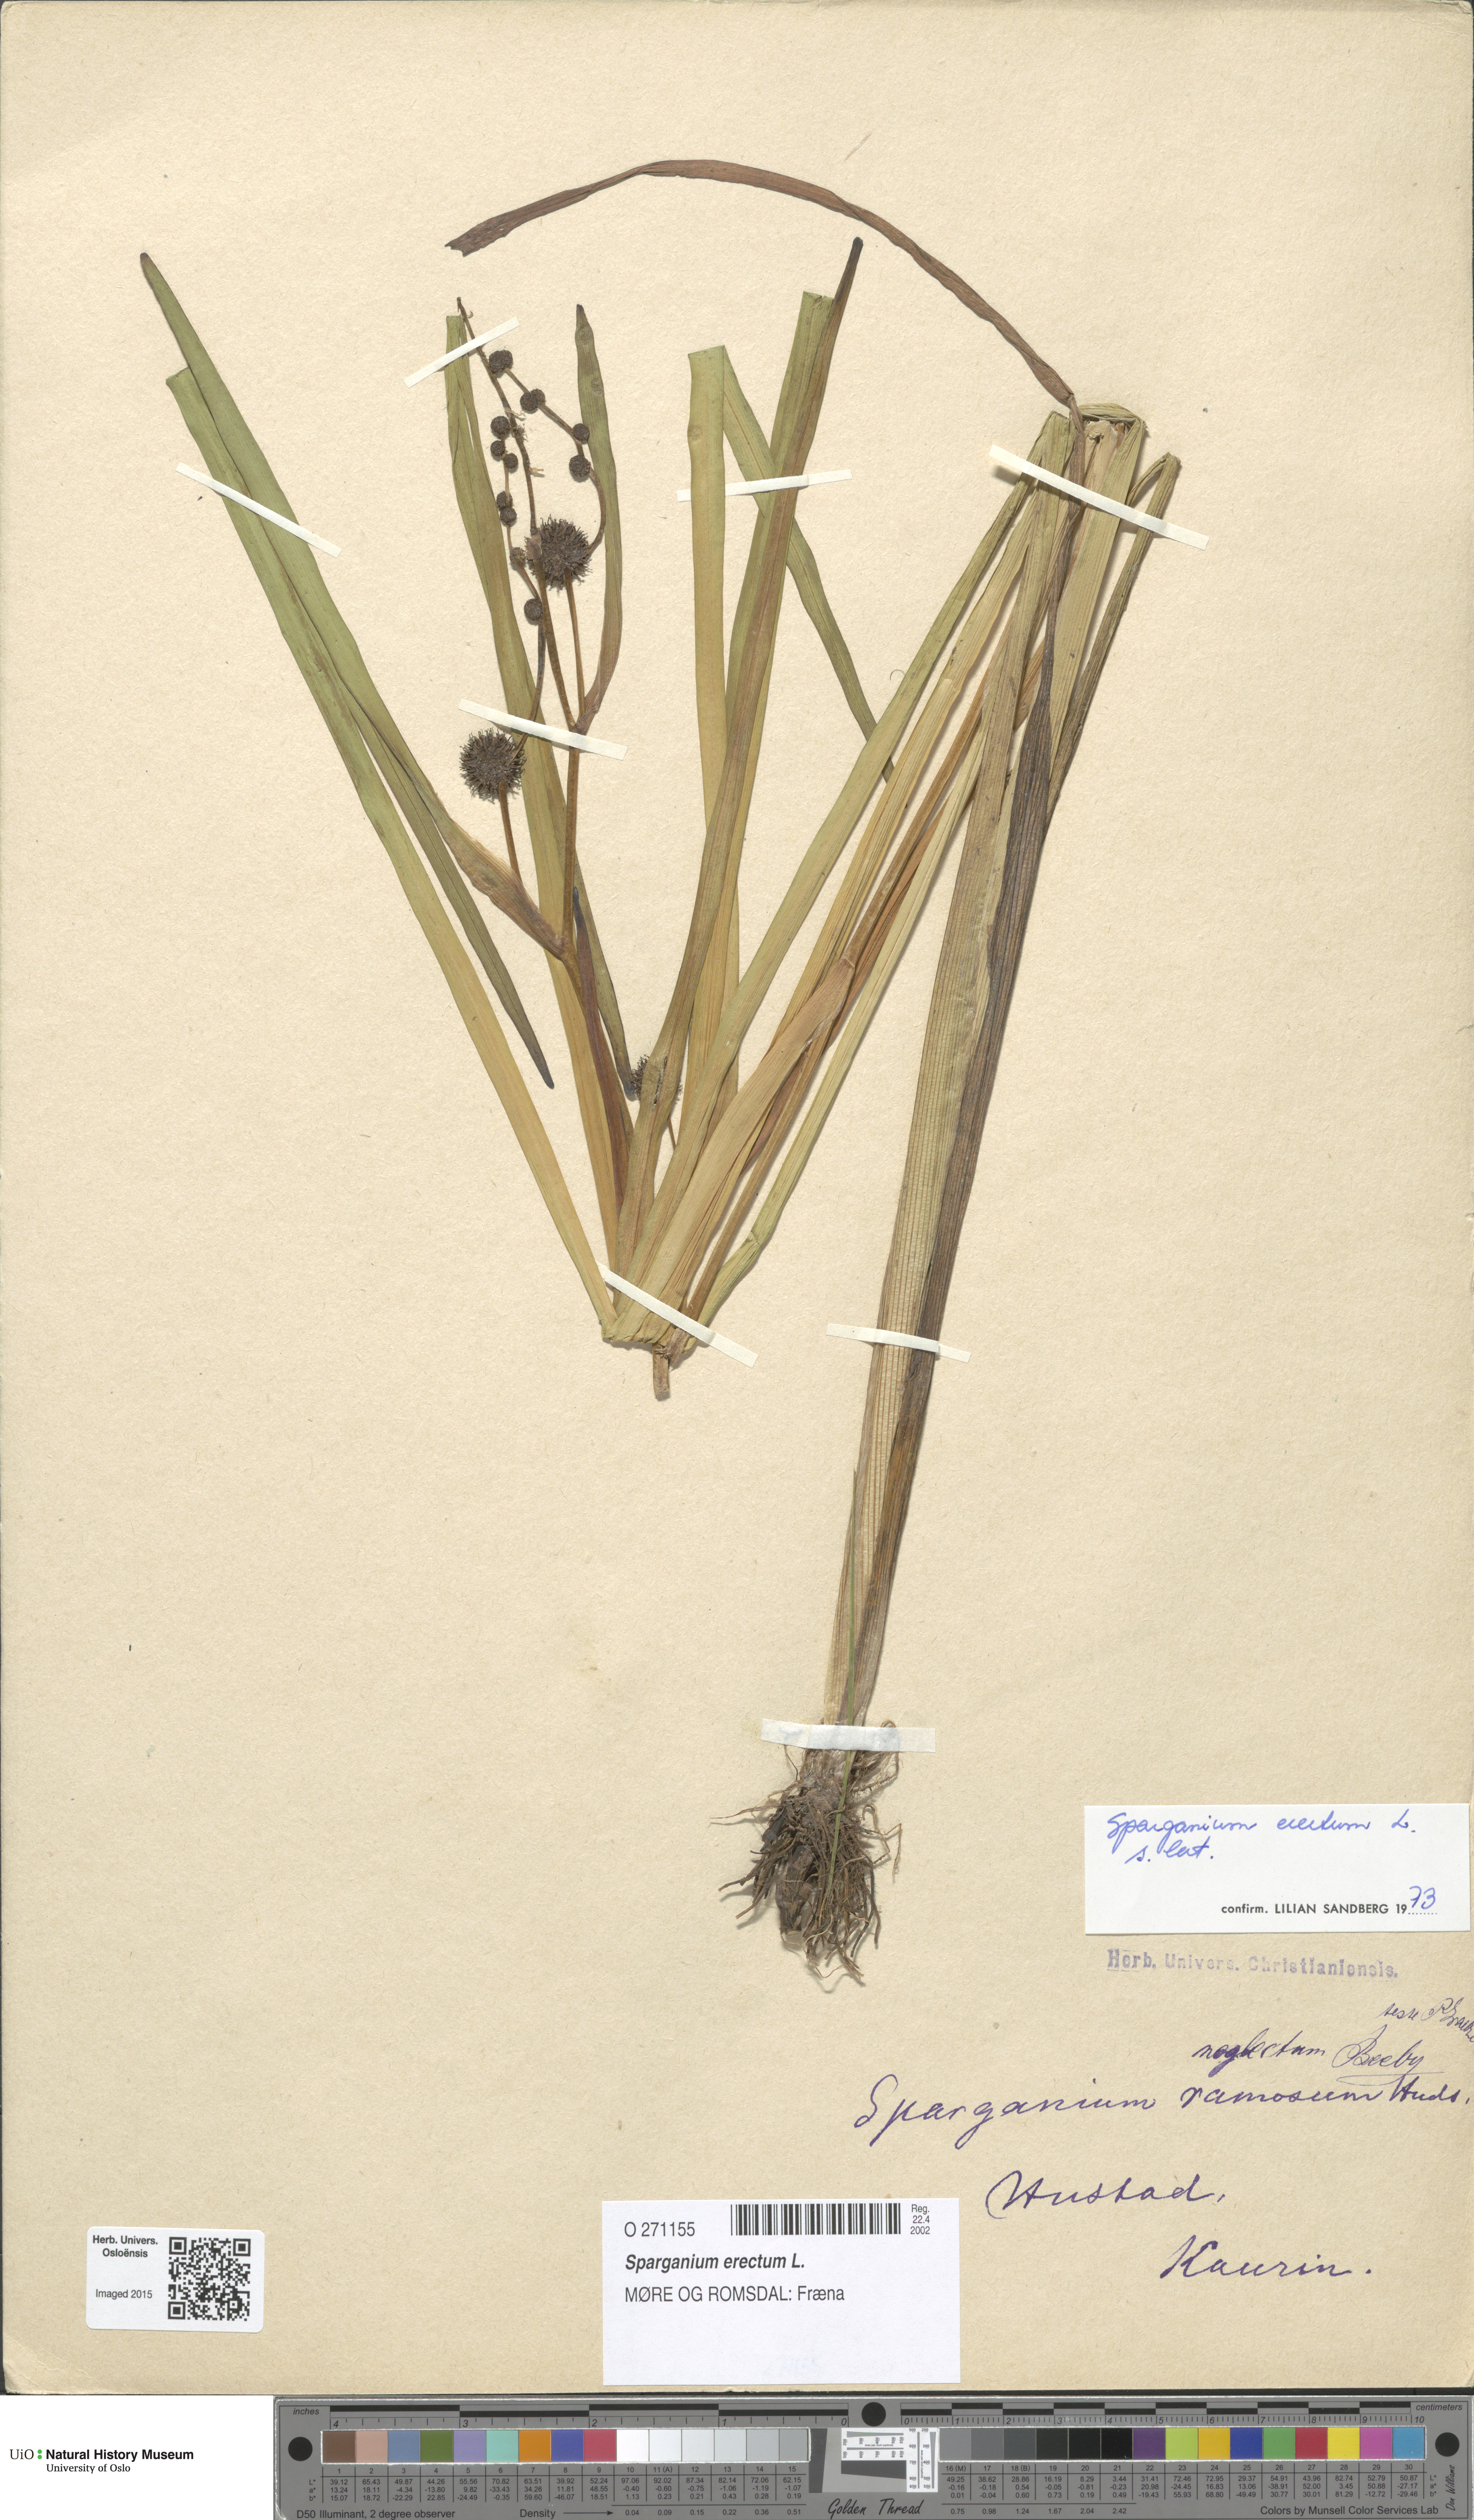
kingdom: Plantae
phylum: Tracheophyta
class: Liliopsida
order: Poales
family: Typhaceae
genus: Sparganium
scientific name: Sparganium erectum
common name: Branched bur-reed
